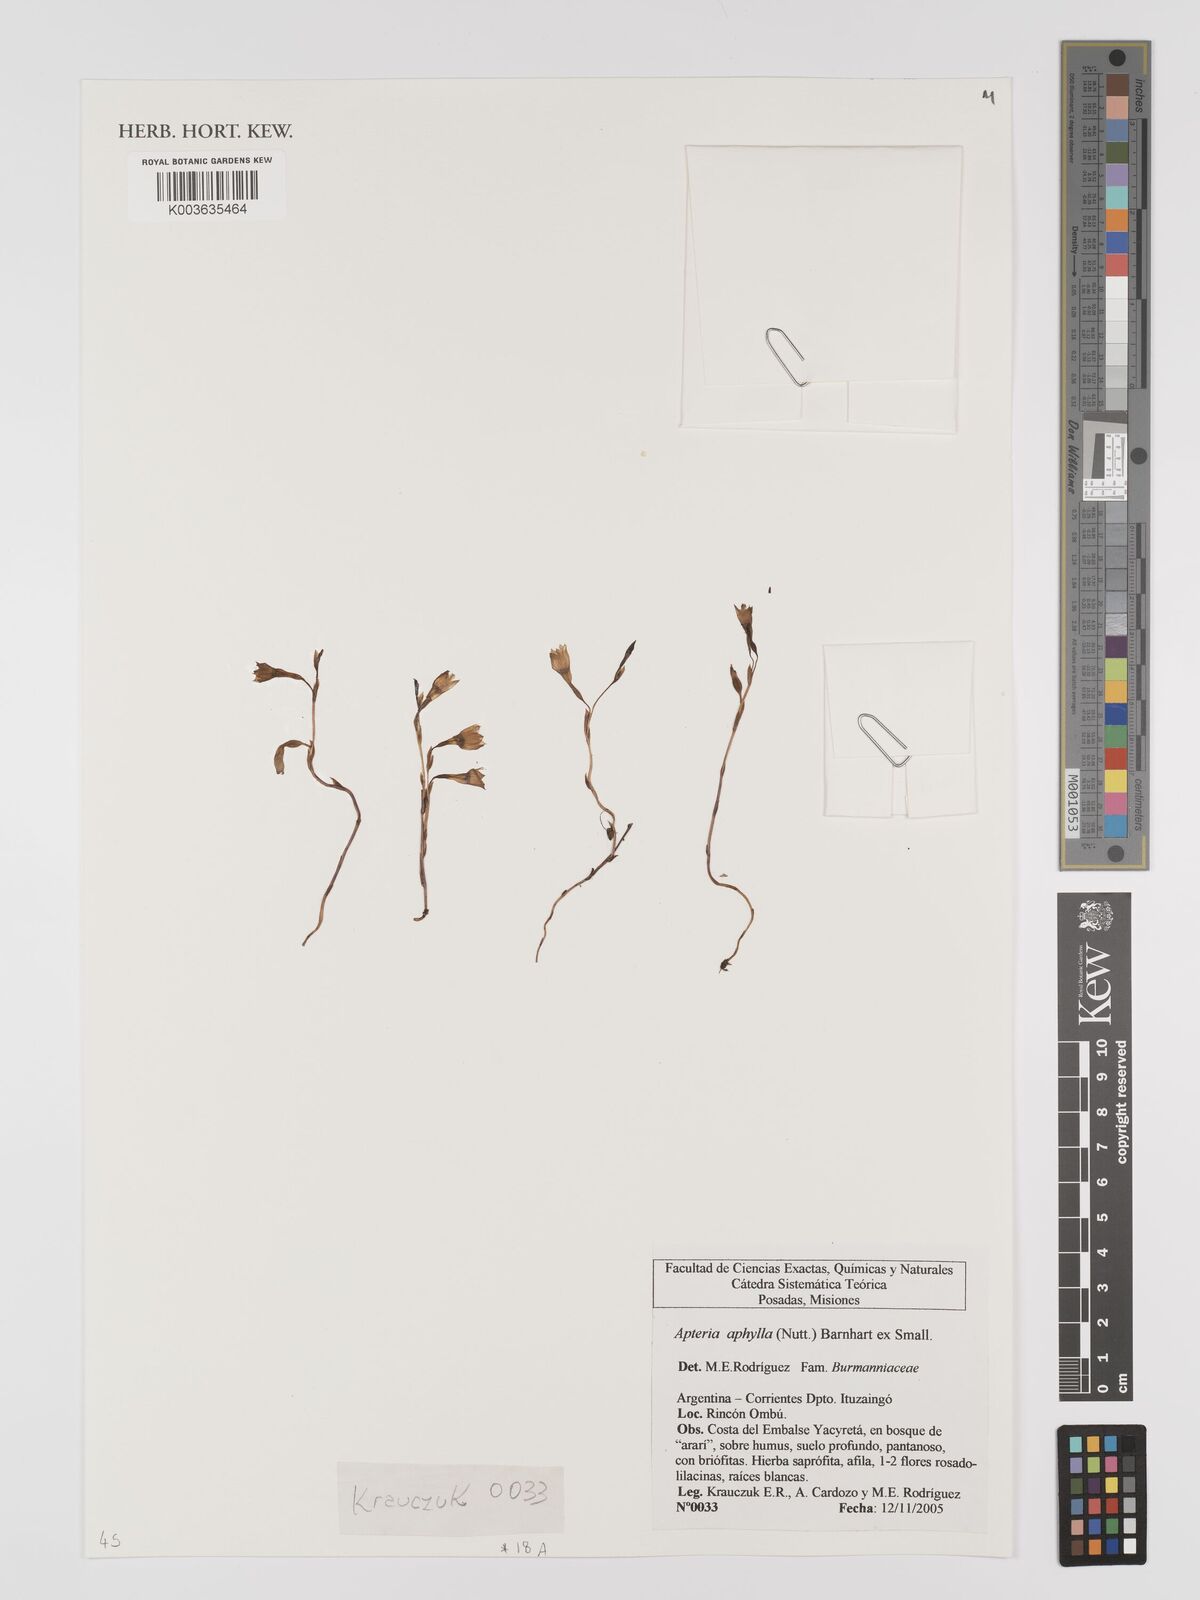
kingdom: Plantae
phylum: Tracheophyta
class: Liliopsida
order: Dioscoreales
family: Burmanniaceae
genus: Apteria
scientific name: Apteria aphylla
